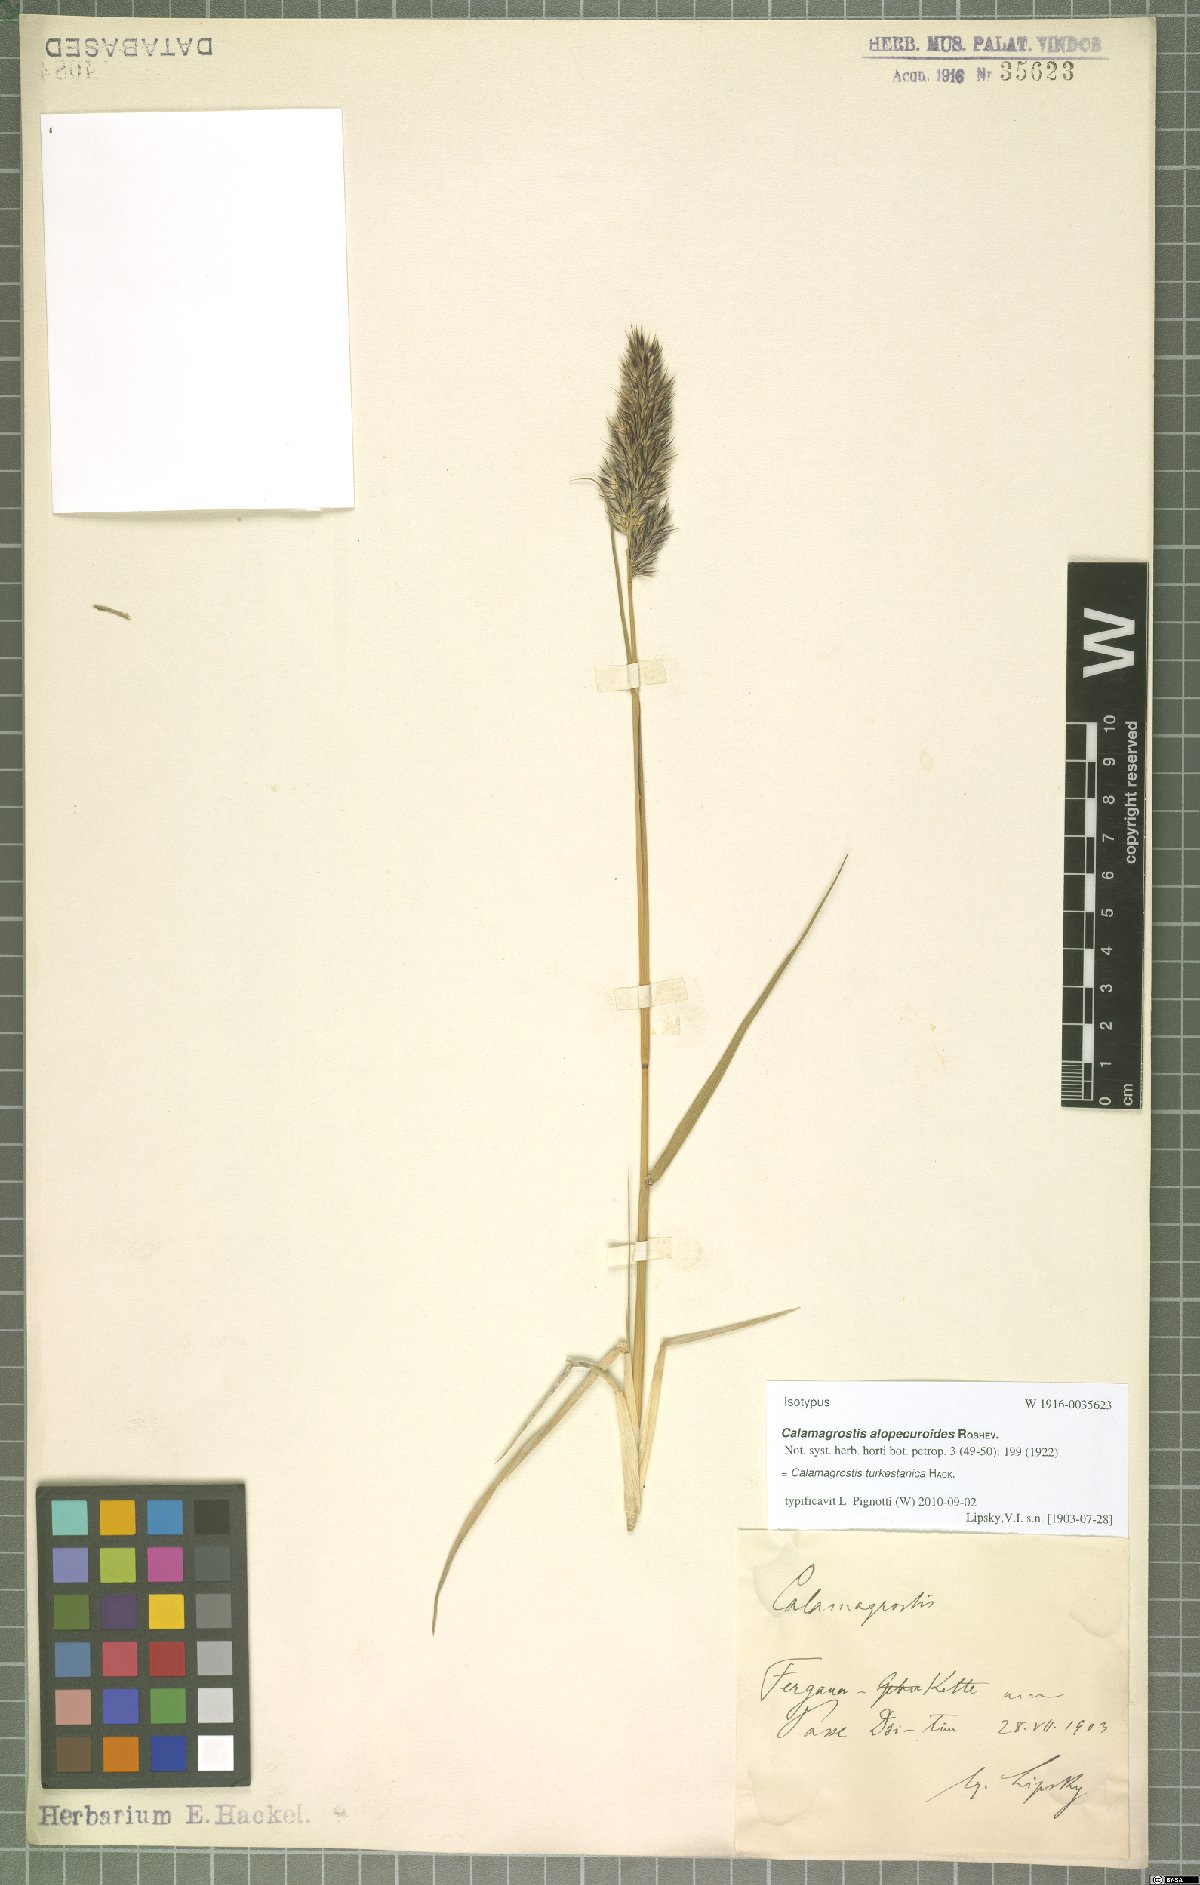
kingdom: Plantae
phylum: Tracheophyta
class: Liliopsida
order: Poales
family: Poaceae
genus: Calamagrostis
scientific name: Calamagrostis turkestanica
